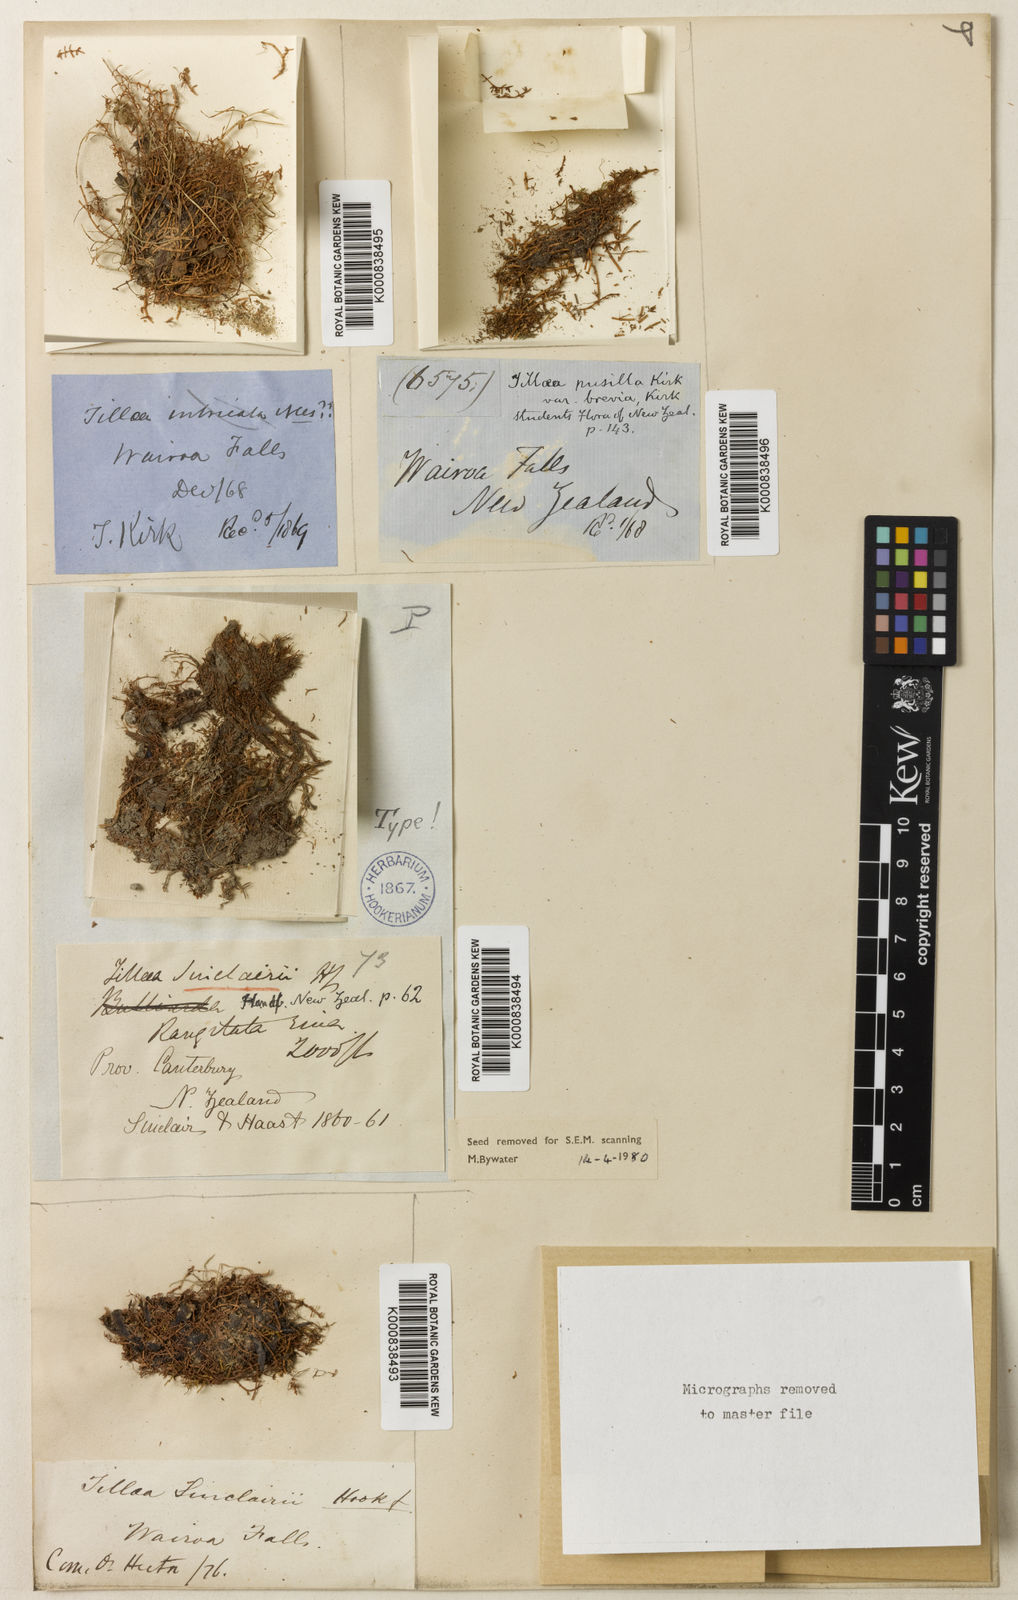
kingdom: Plantae
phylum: Tracheophyta
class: Magnoliopsida
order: Saxifragales
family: Crassulaceae
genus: Crassula
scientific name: Crassula sinclairii
